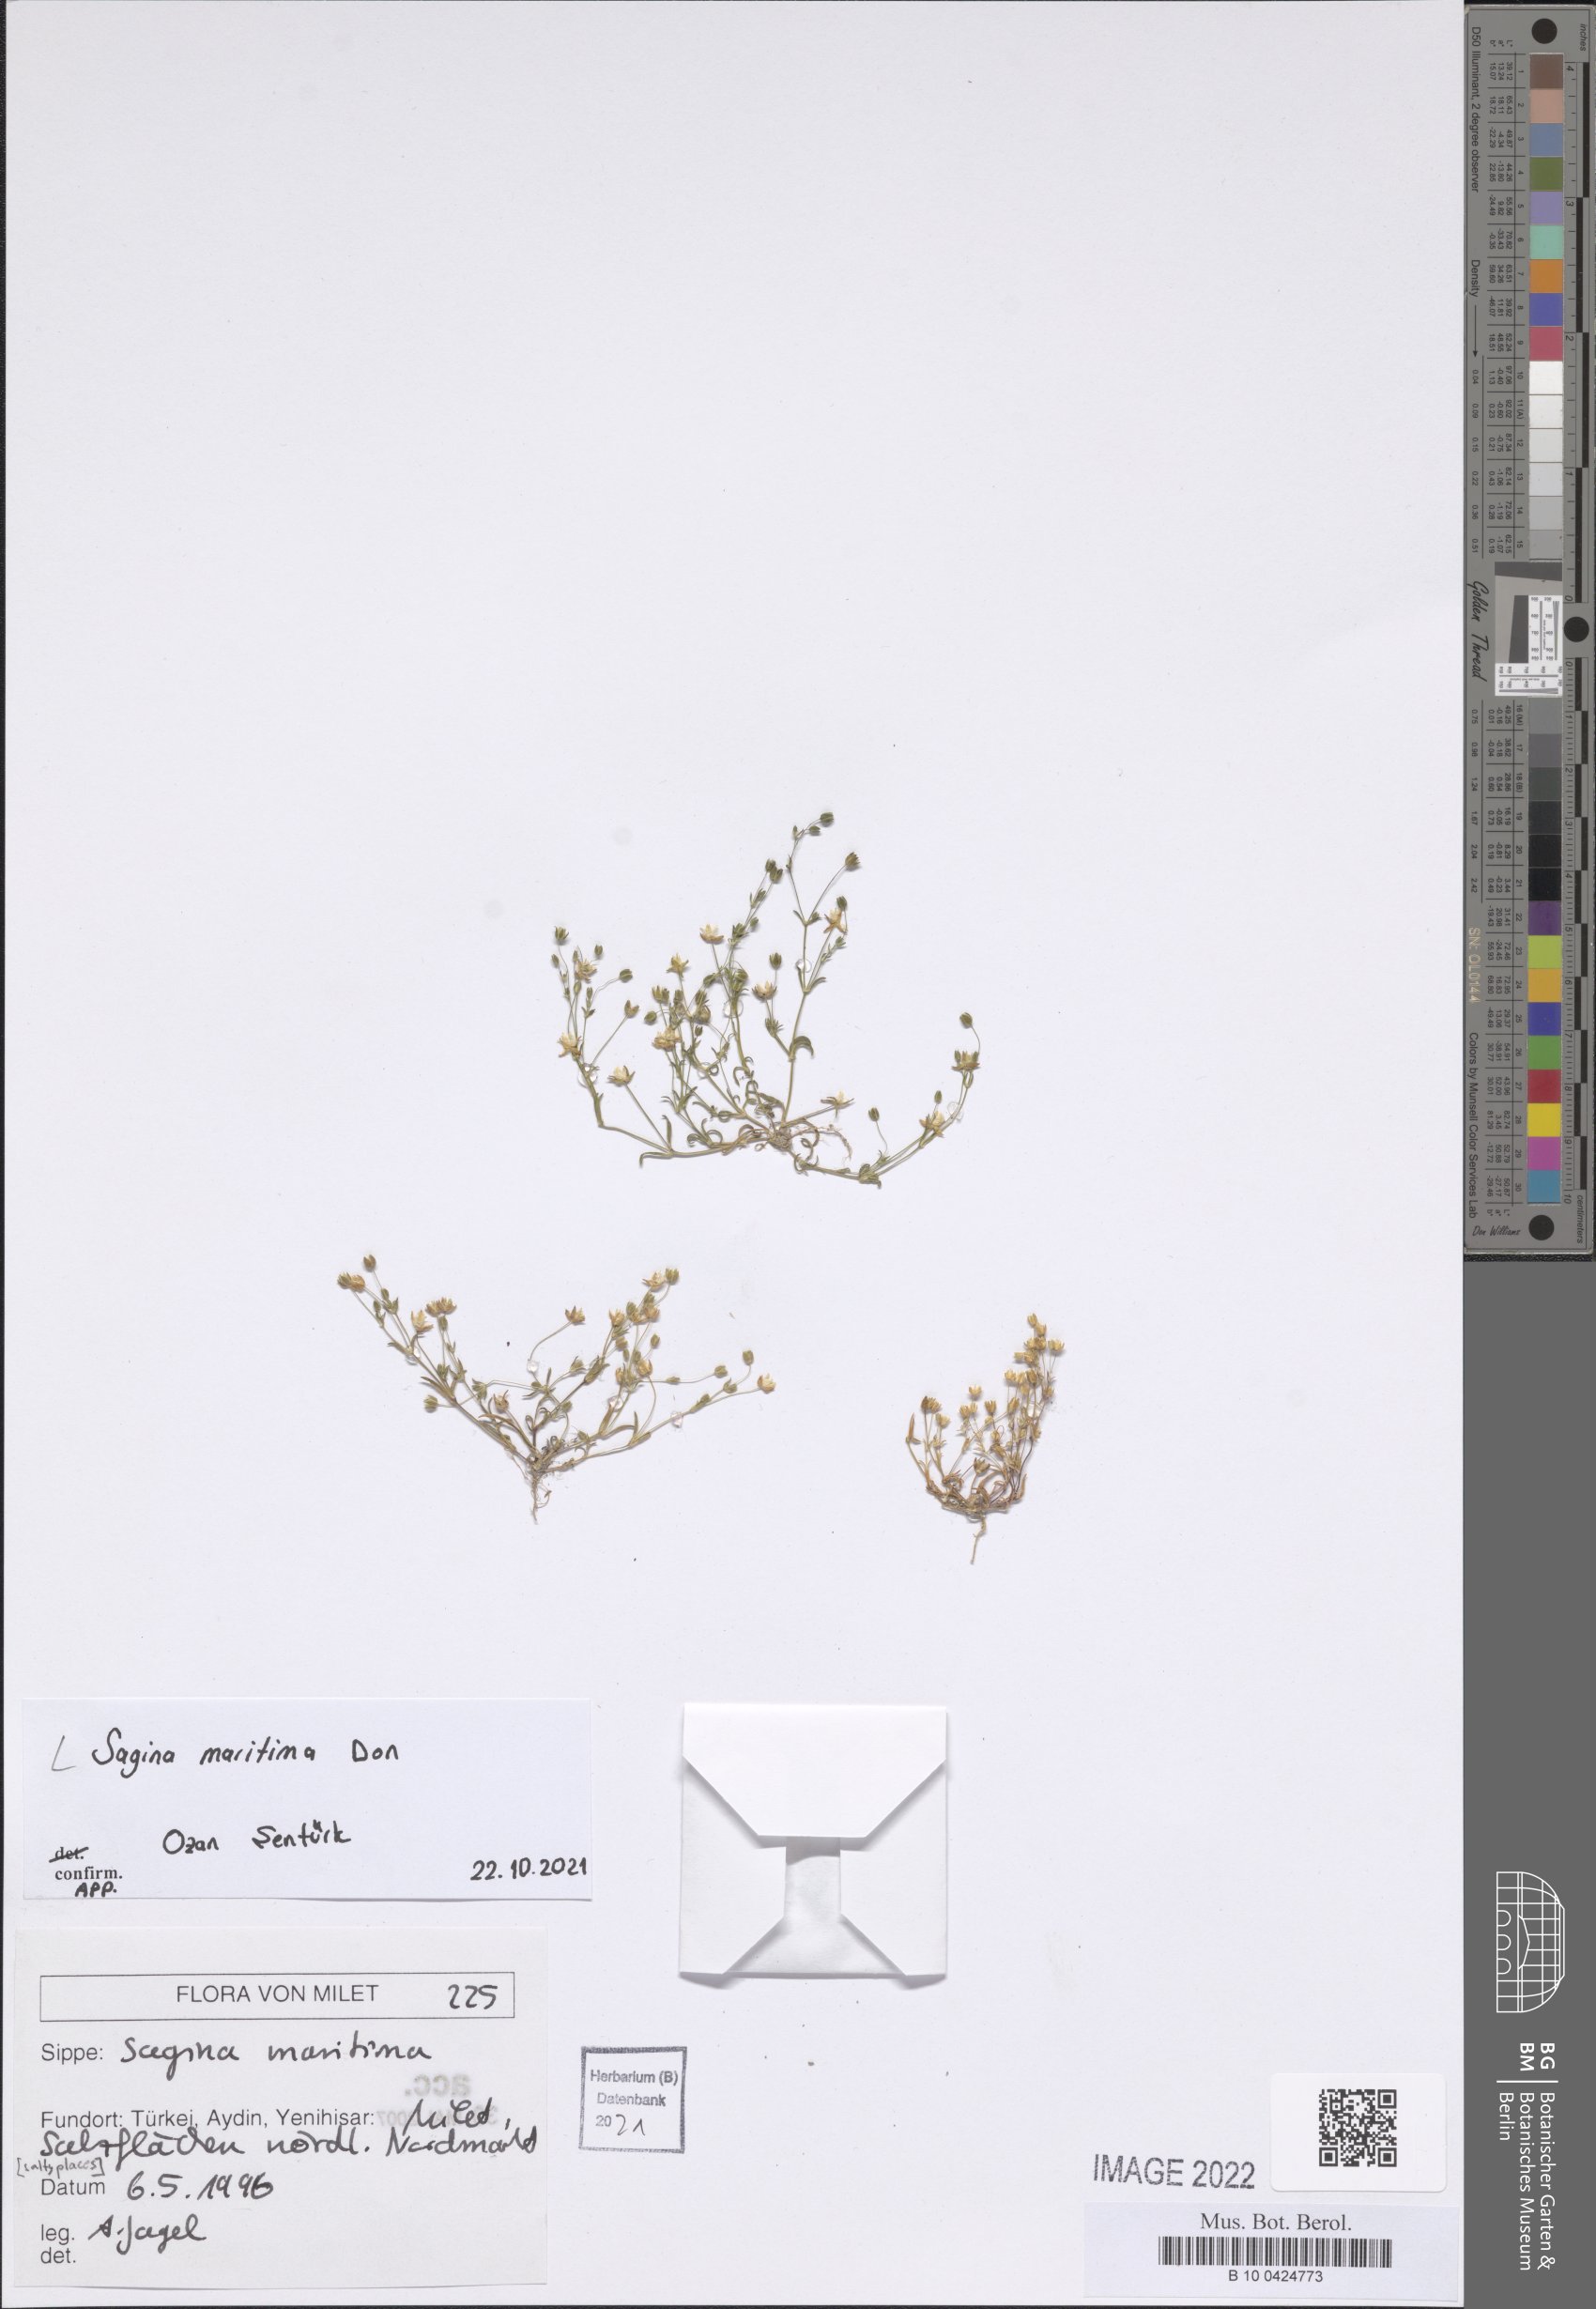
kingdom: Plantae
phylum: Tracheophyta
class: Magnoliopsida
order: Caryophyllales
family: Caryophyllaceae
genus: Sagina
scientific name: Sagina maritima
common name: Sea pearlwort
